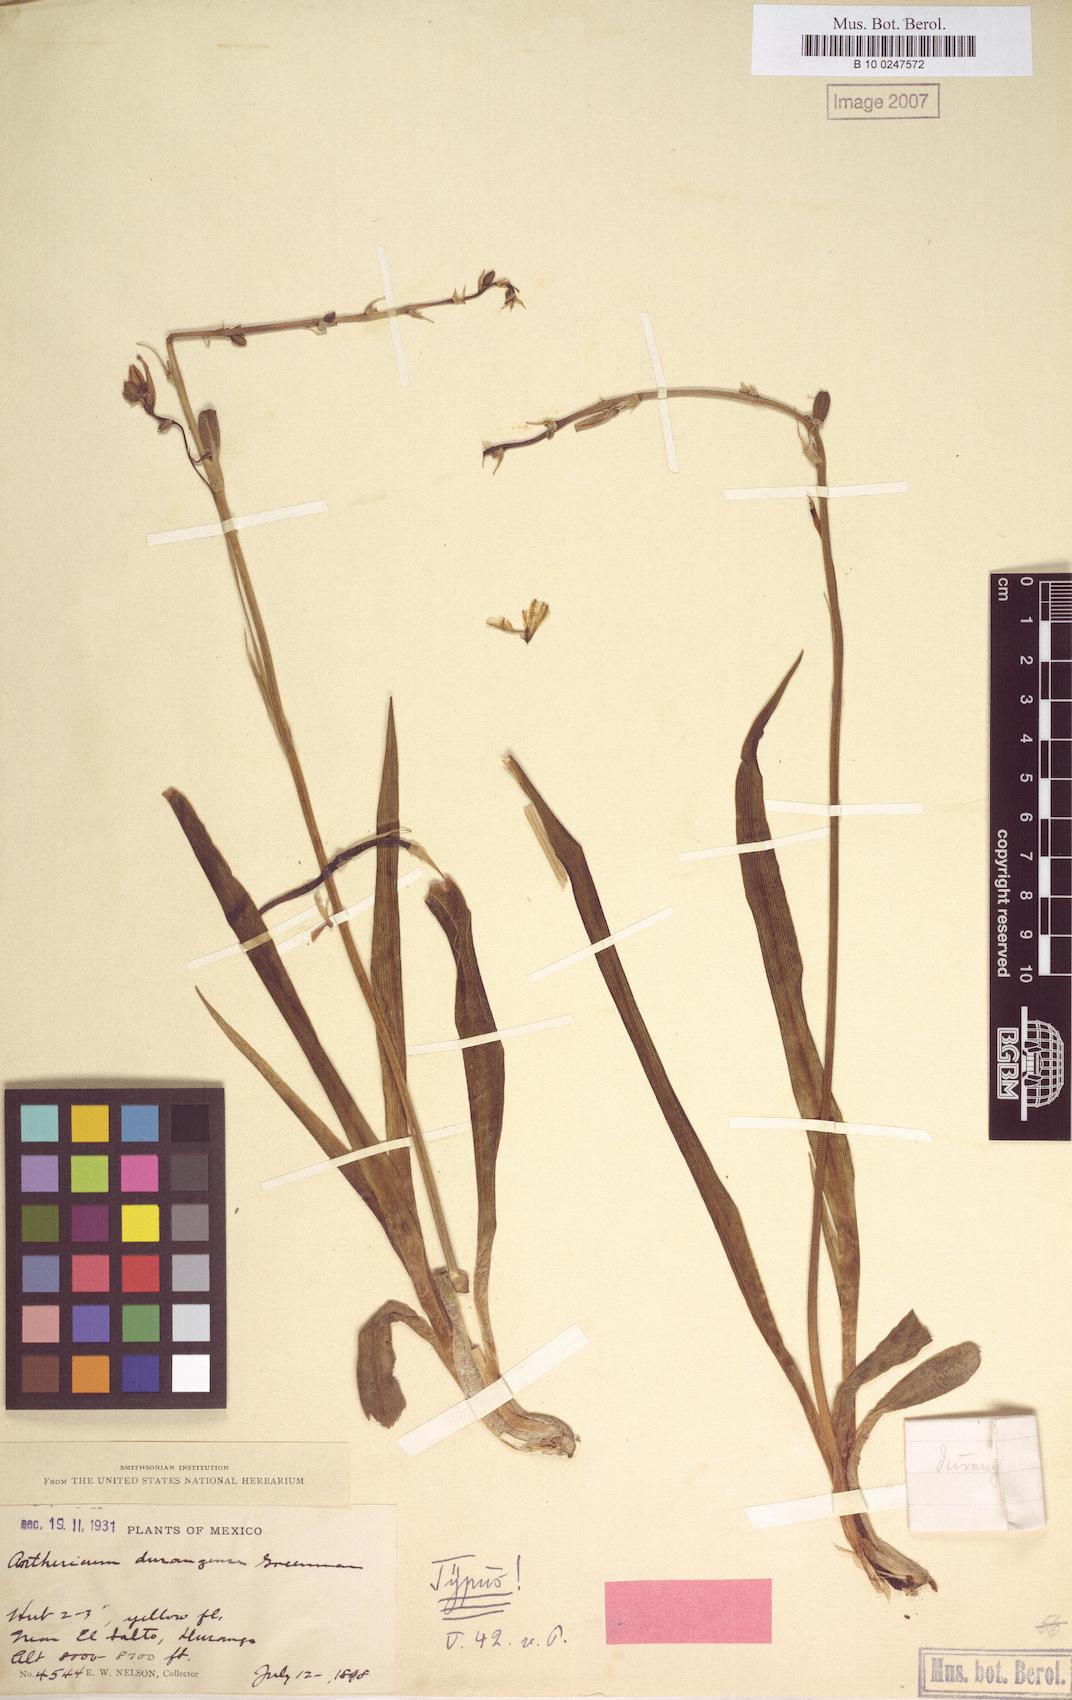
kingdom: Plantae
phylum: Tracheophyta
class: Liliopsida
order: Asparagales
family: Asparagaceae
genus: Echeandia
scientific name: Echeandia flavescens
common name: Amberlily
